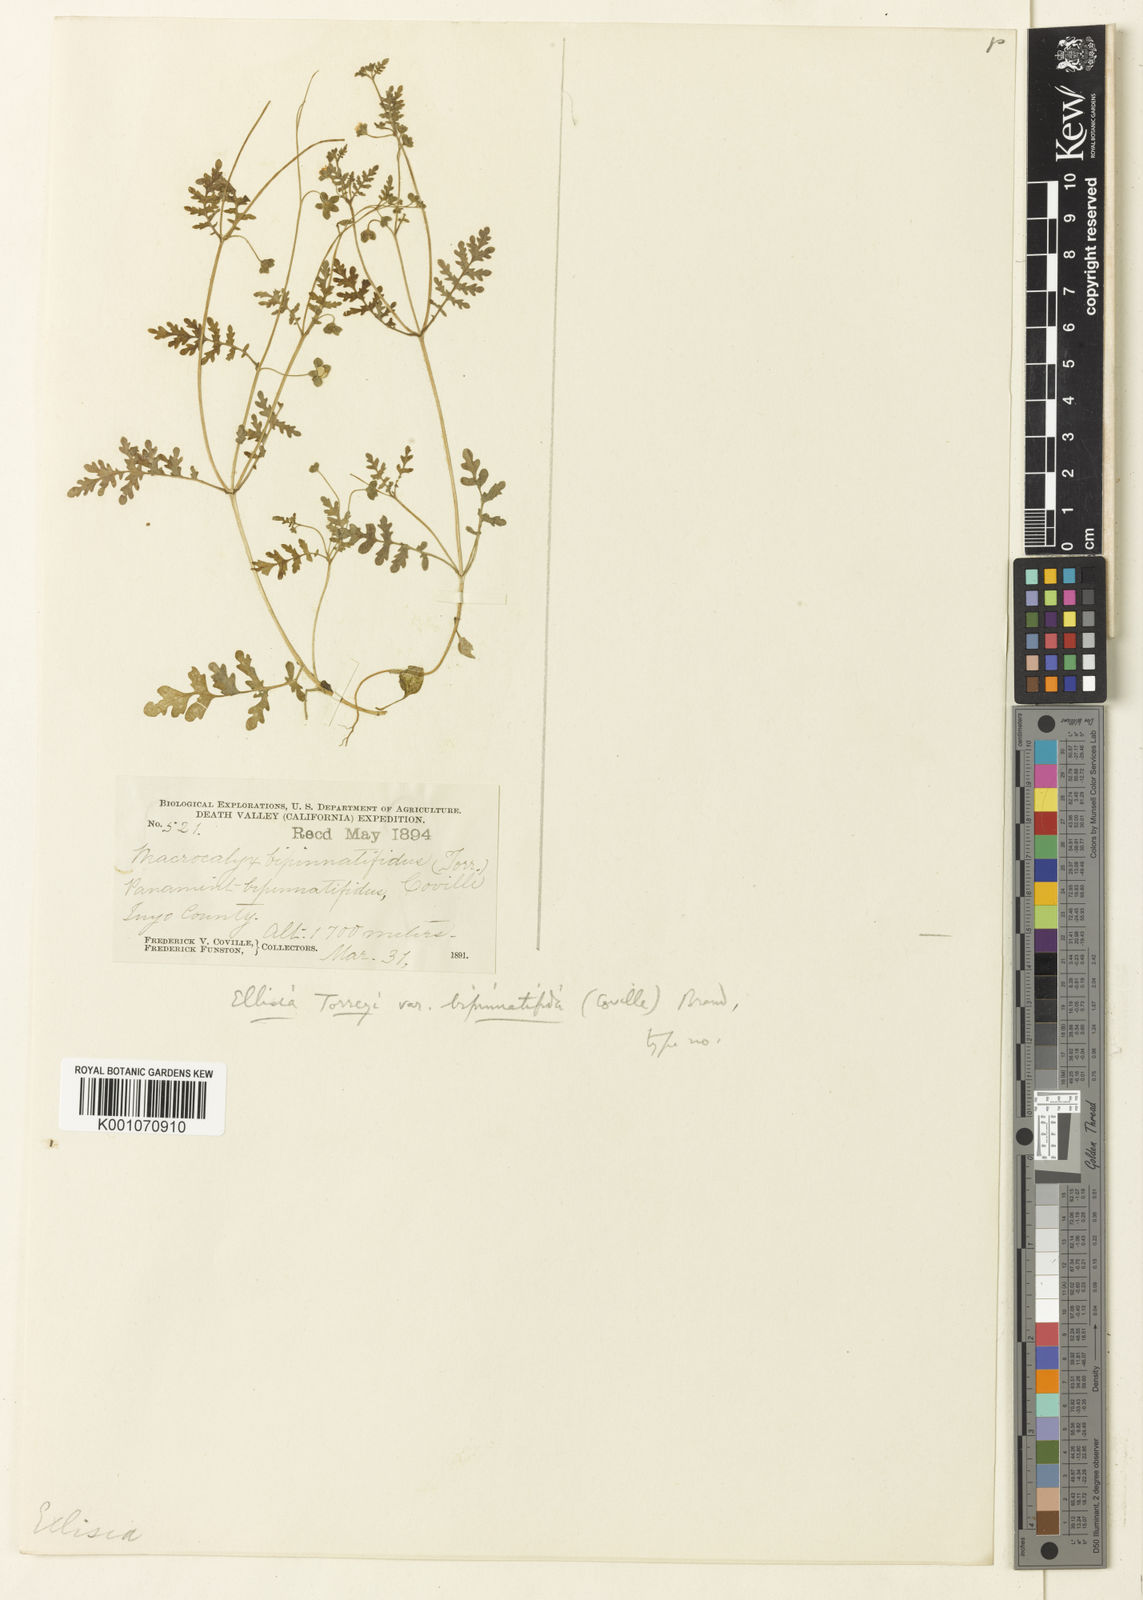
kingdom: Plantae
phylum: Tracheophyta
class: Magnoliopsida
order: Boraginales
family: Hydrophyllaceae
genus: Eucrypta
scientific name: Eucrypta chrysanthemifolia
